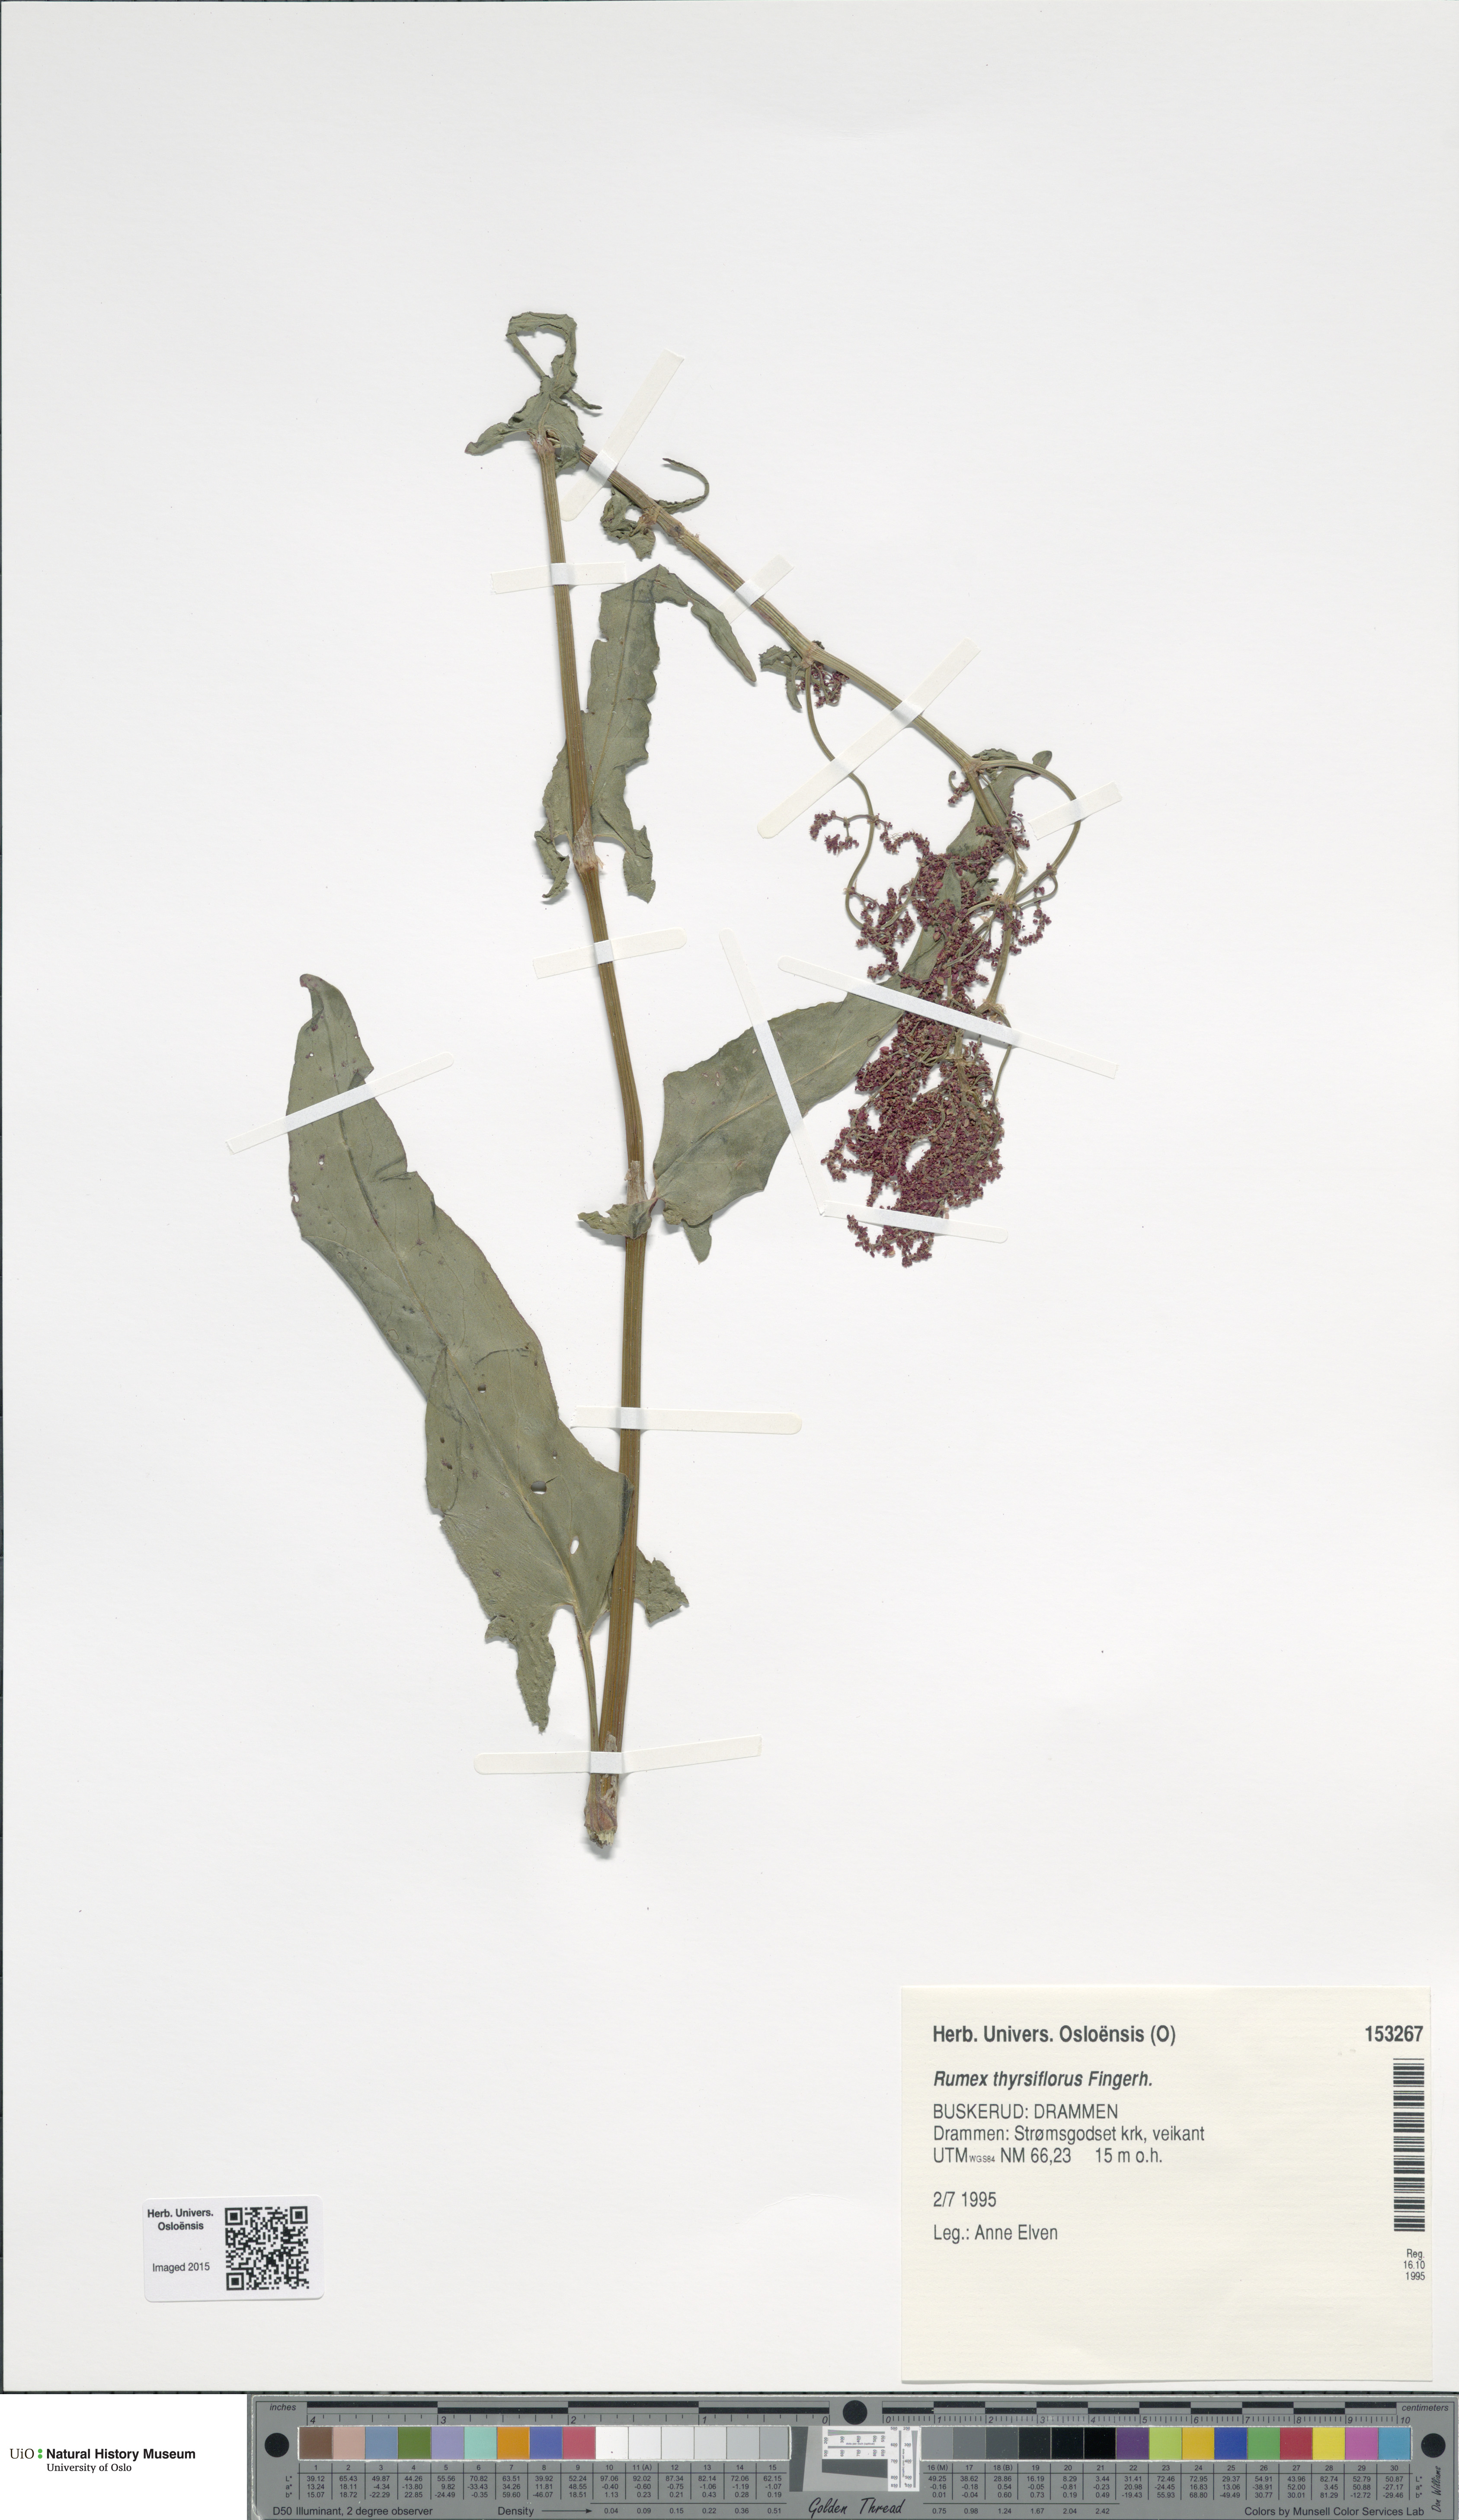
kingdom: Plantae
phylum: Tracheophyta
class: Magnoliopsida
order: Caryophyllales
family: Polygonaceae
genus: Rumex
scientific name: Rumex thyrsiflorus
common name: Garden sorrel
